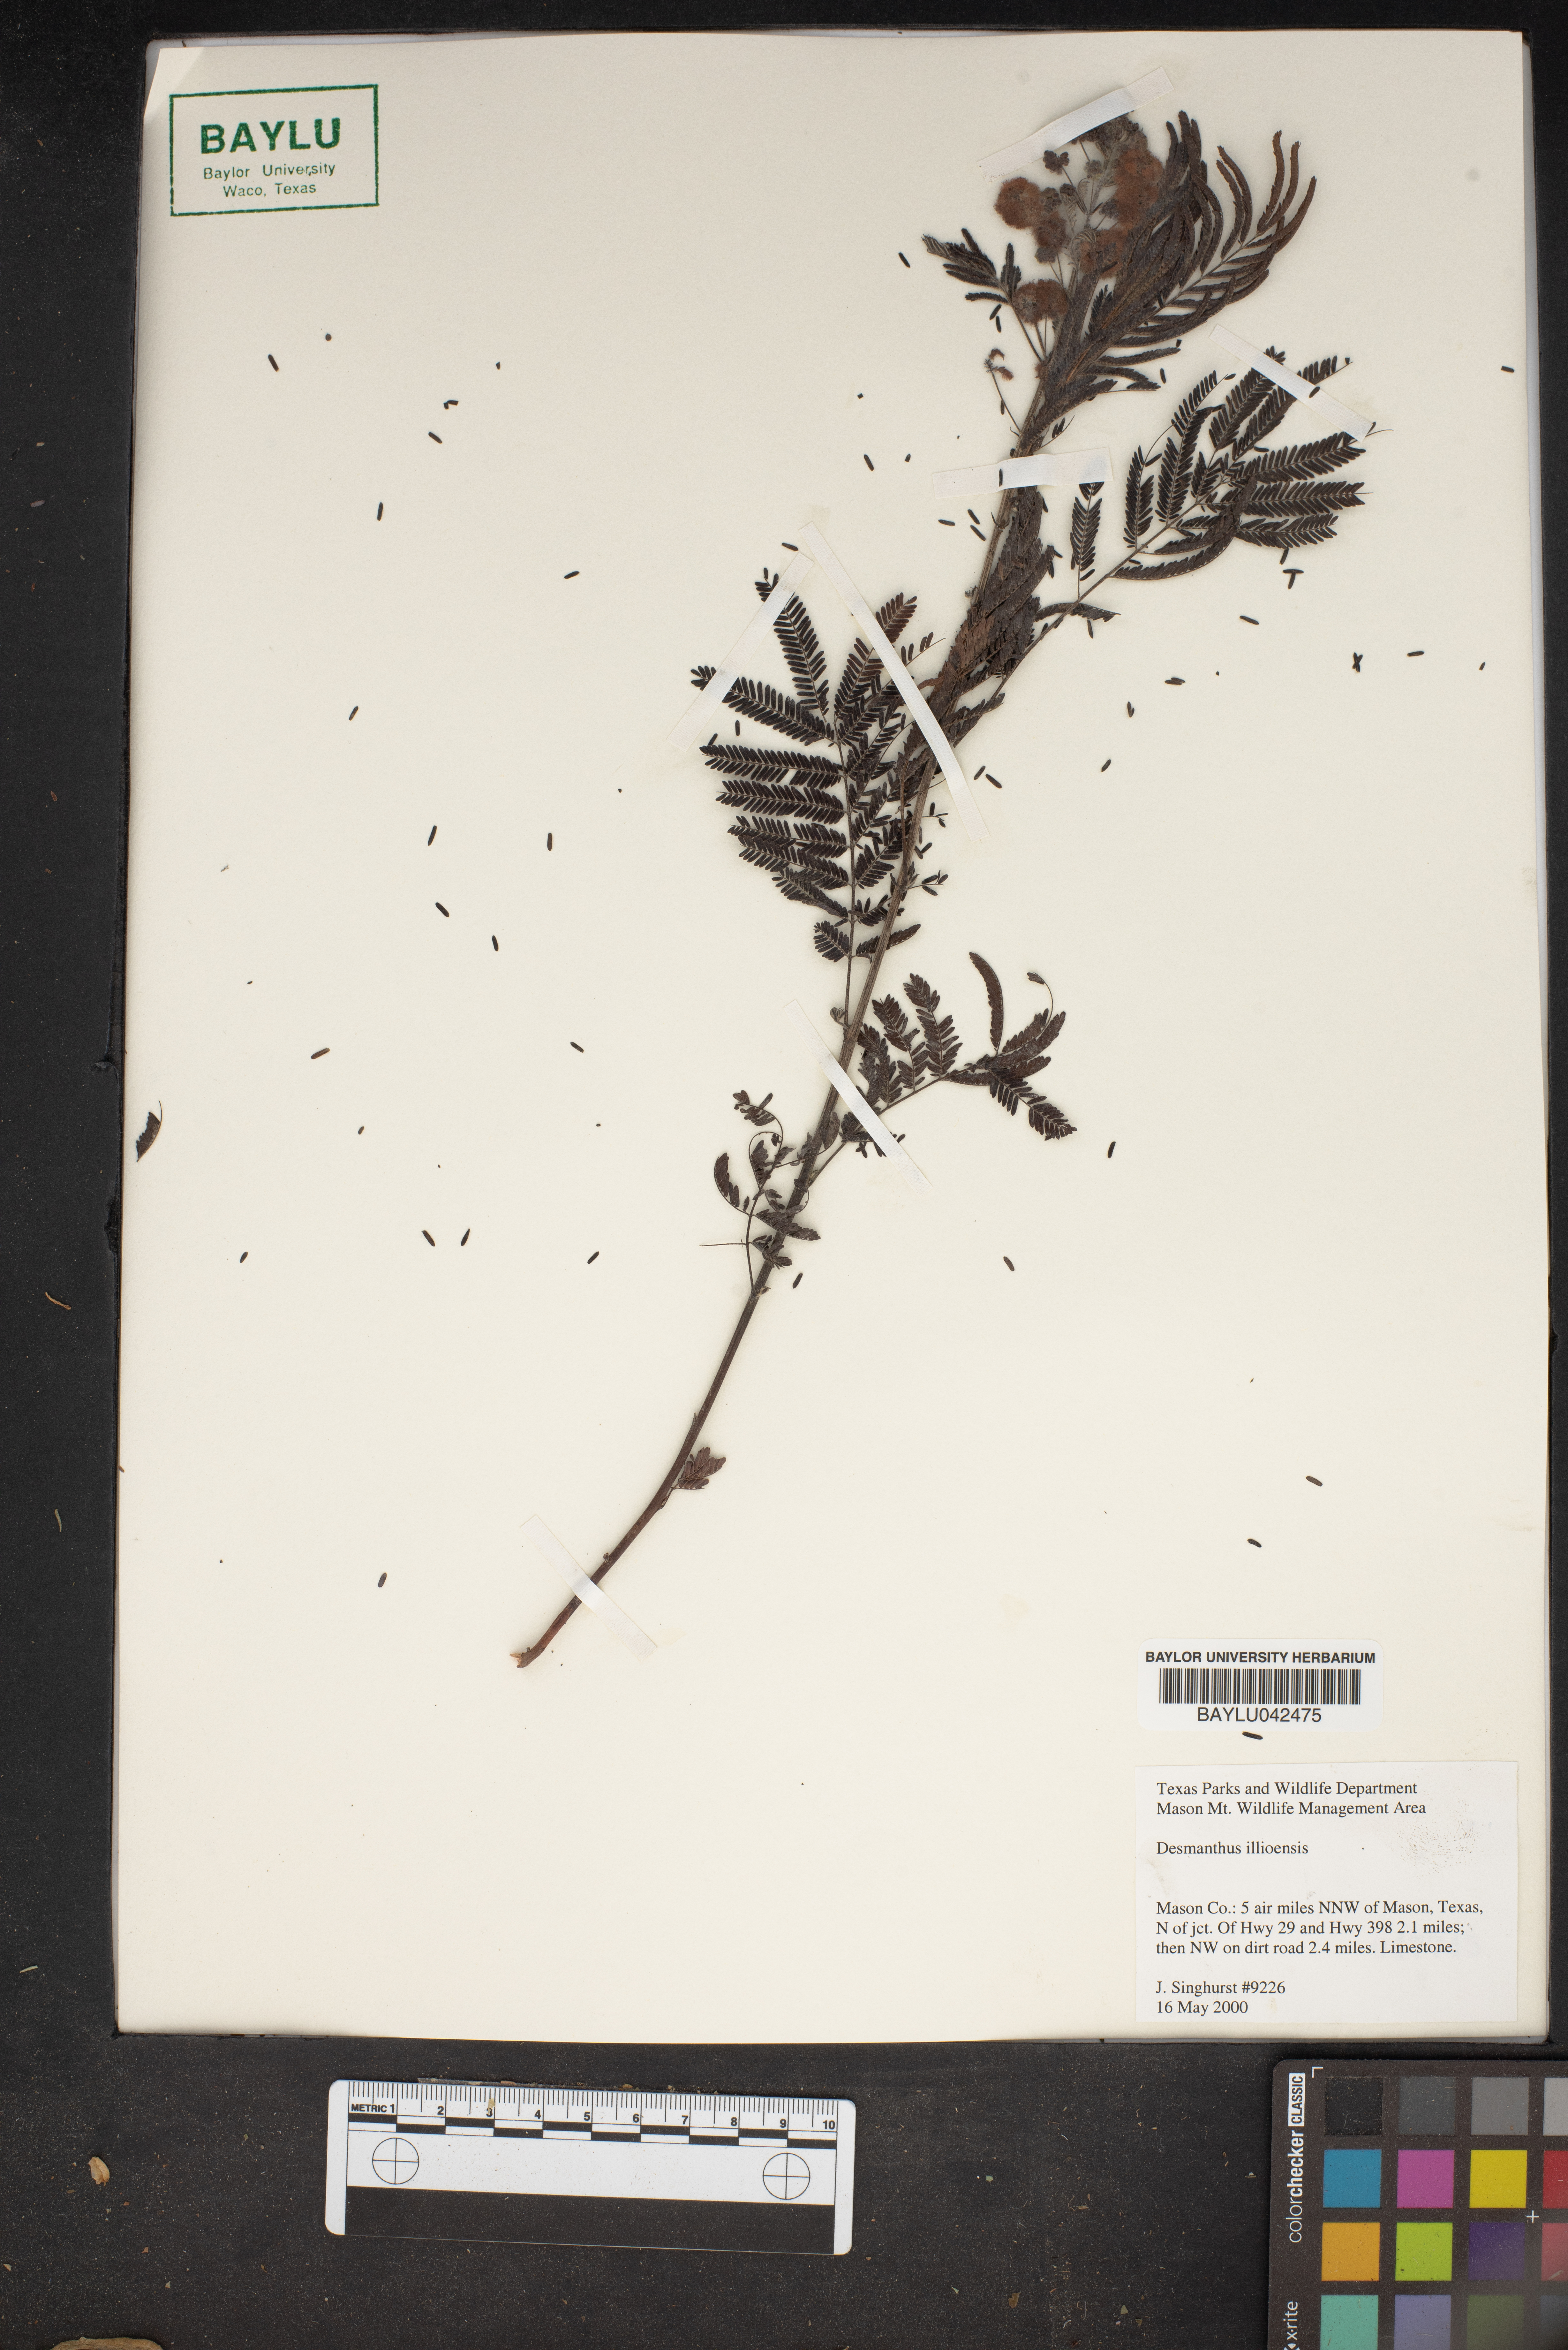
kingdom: Plantae
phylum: Tracheophyta
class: Magnoliopsida
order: Fabales
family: Fabaceae
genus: Desmanthus
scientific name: Desmanthus illinoensis
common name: Illinois bundle-flower
